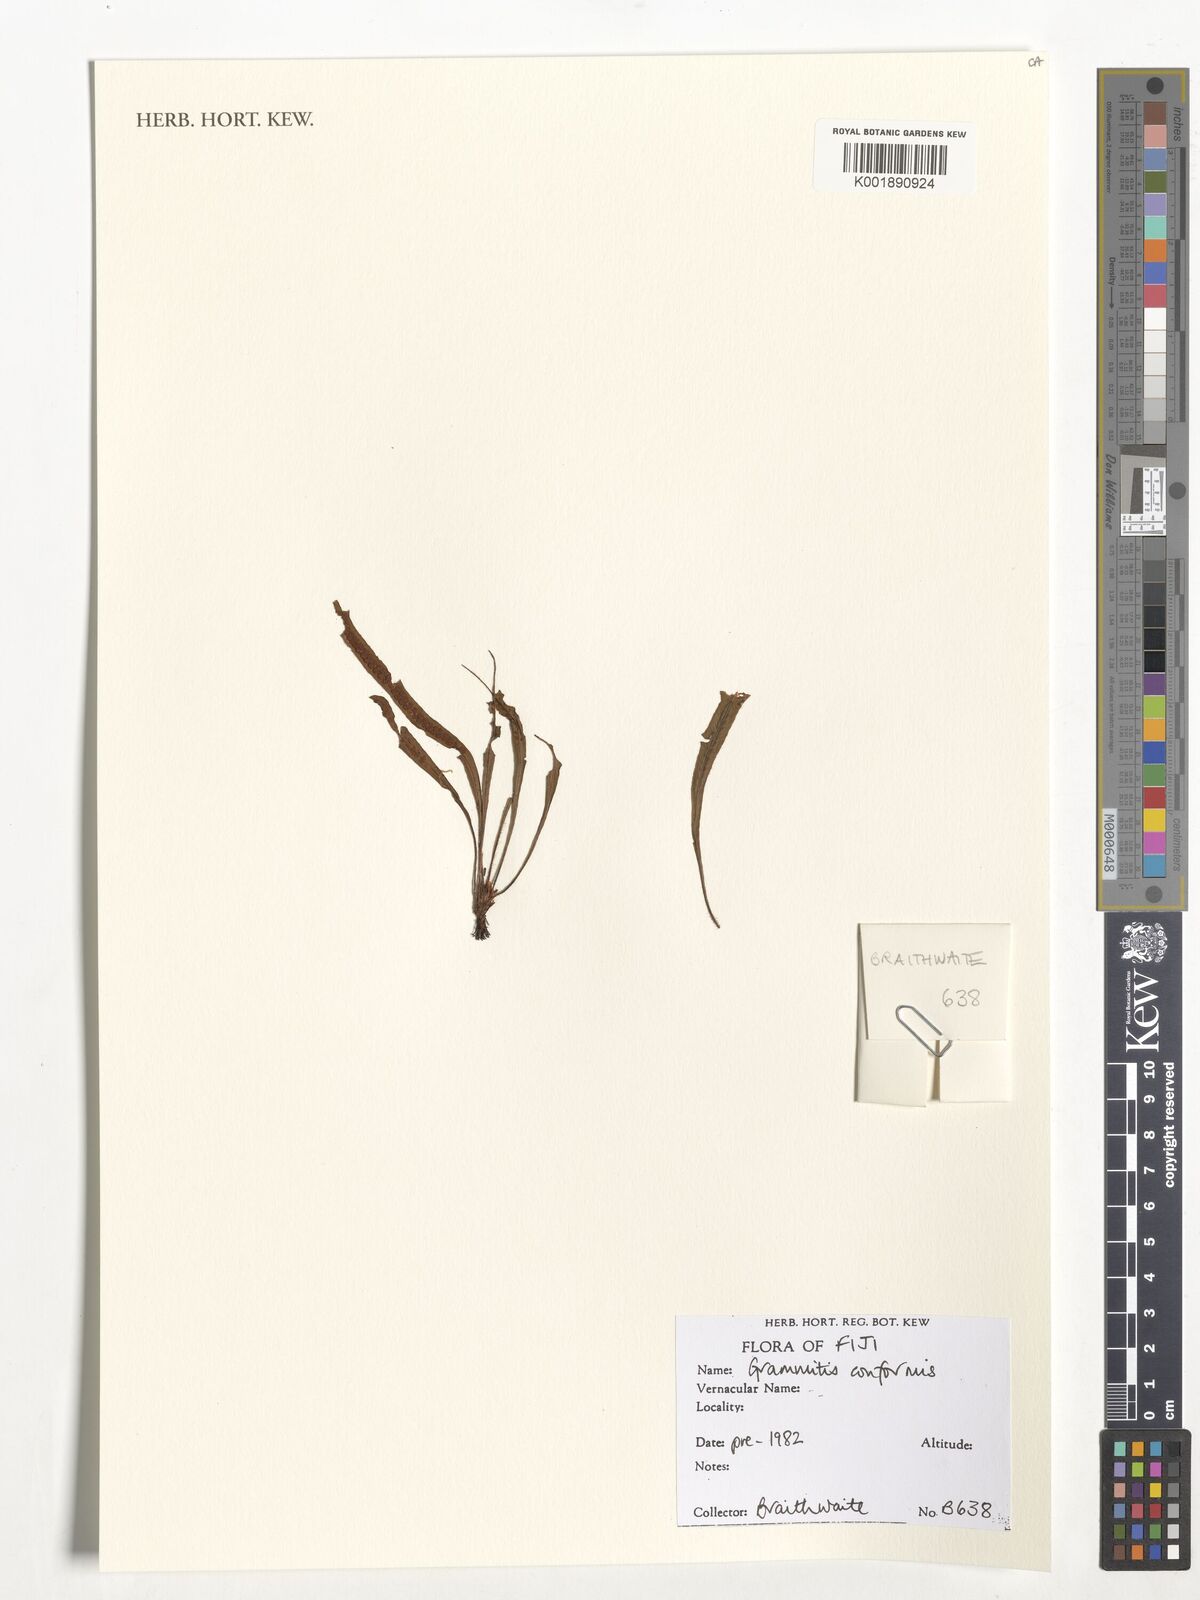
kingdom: Plantae
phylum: Tracheophyta
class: Polypodiopsida
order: Polypodiales
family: Polypodiaceae
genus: Oreogrammitis
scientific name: Oreogrammitis conformis
